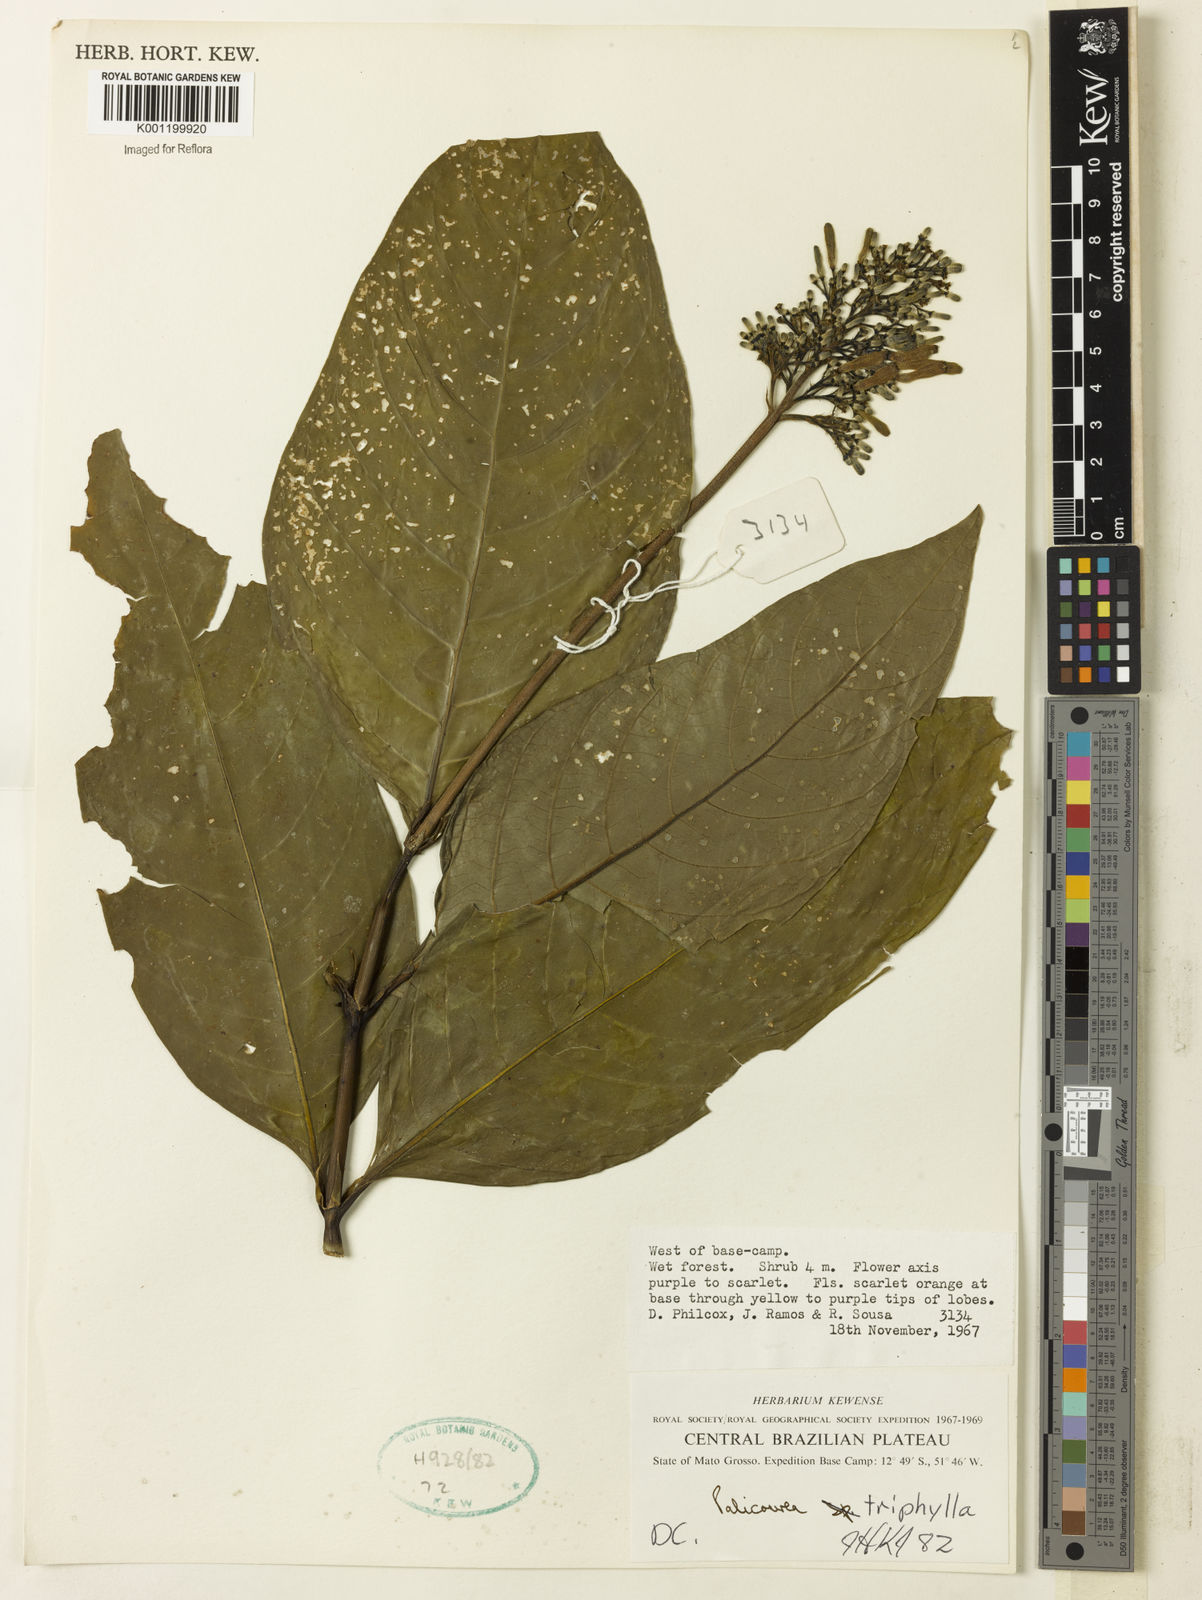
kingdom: Plantae
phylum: Tracheophyta
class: Magnoliopsida
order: Gentianales
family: Rubiaceae
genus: Palicourea
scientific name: Palicourea triphylla
